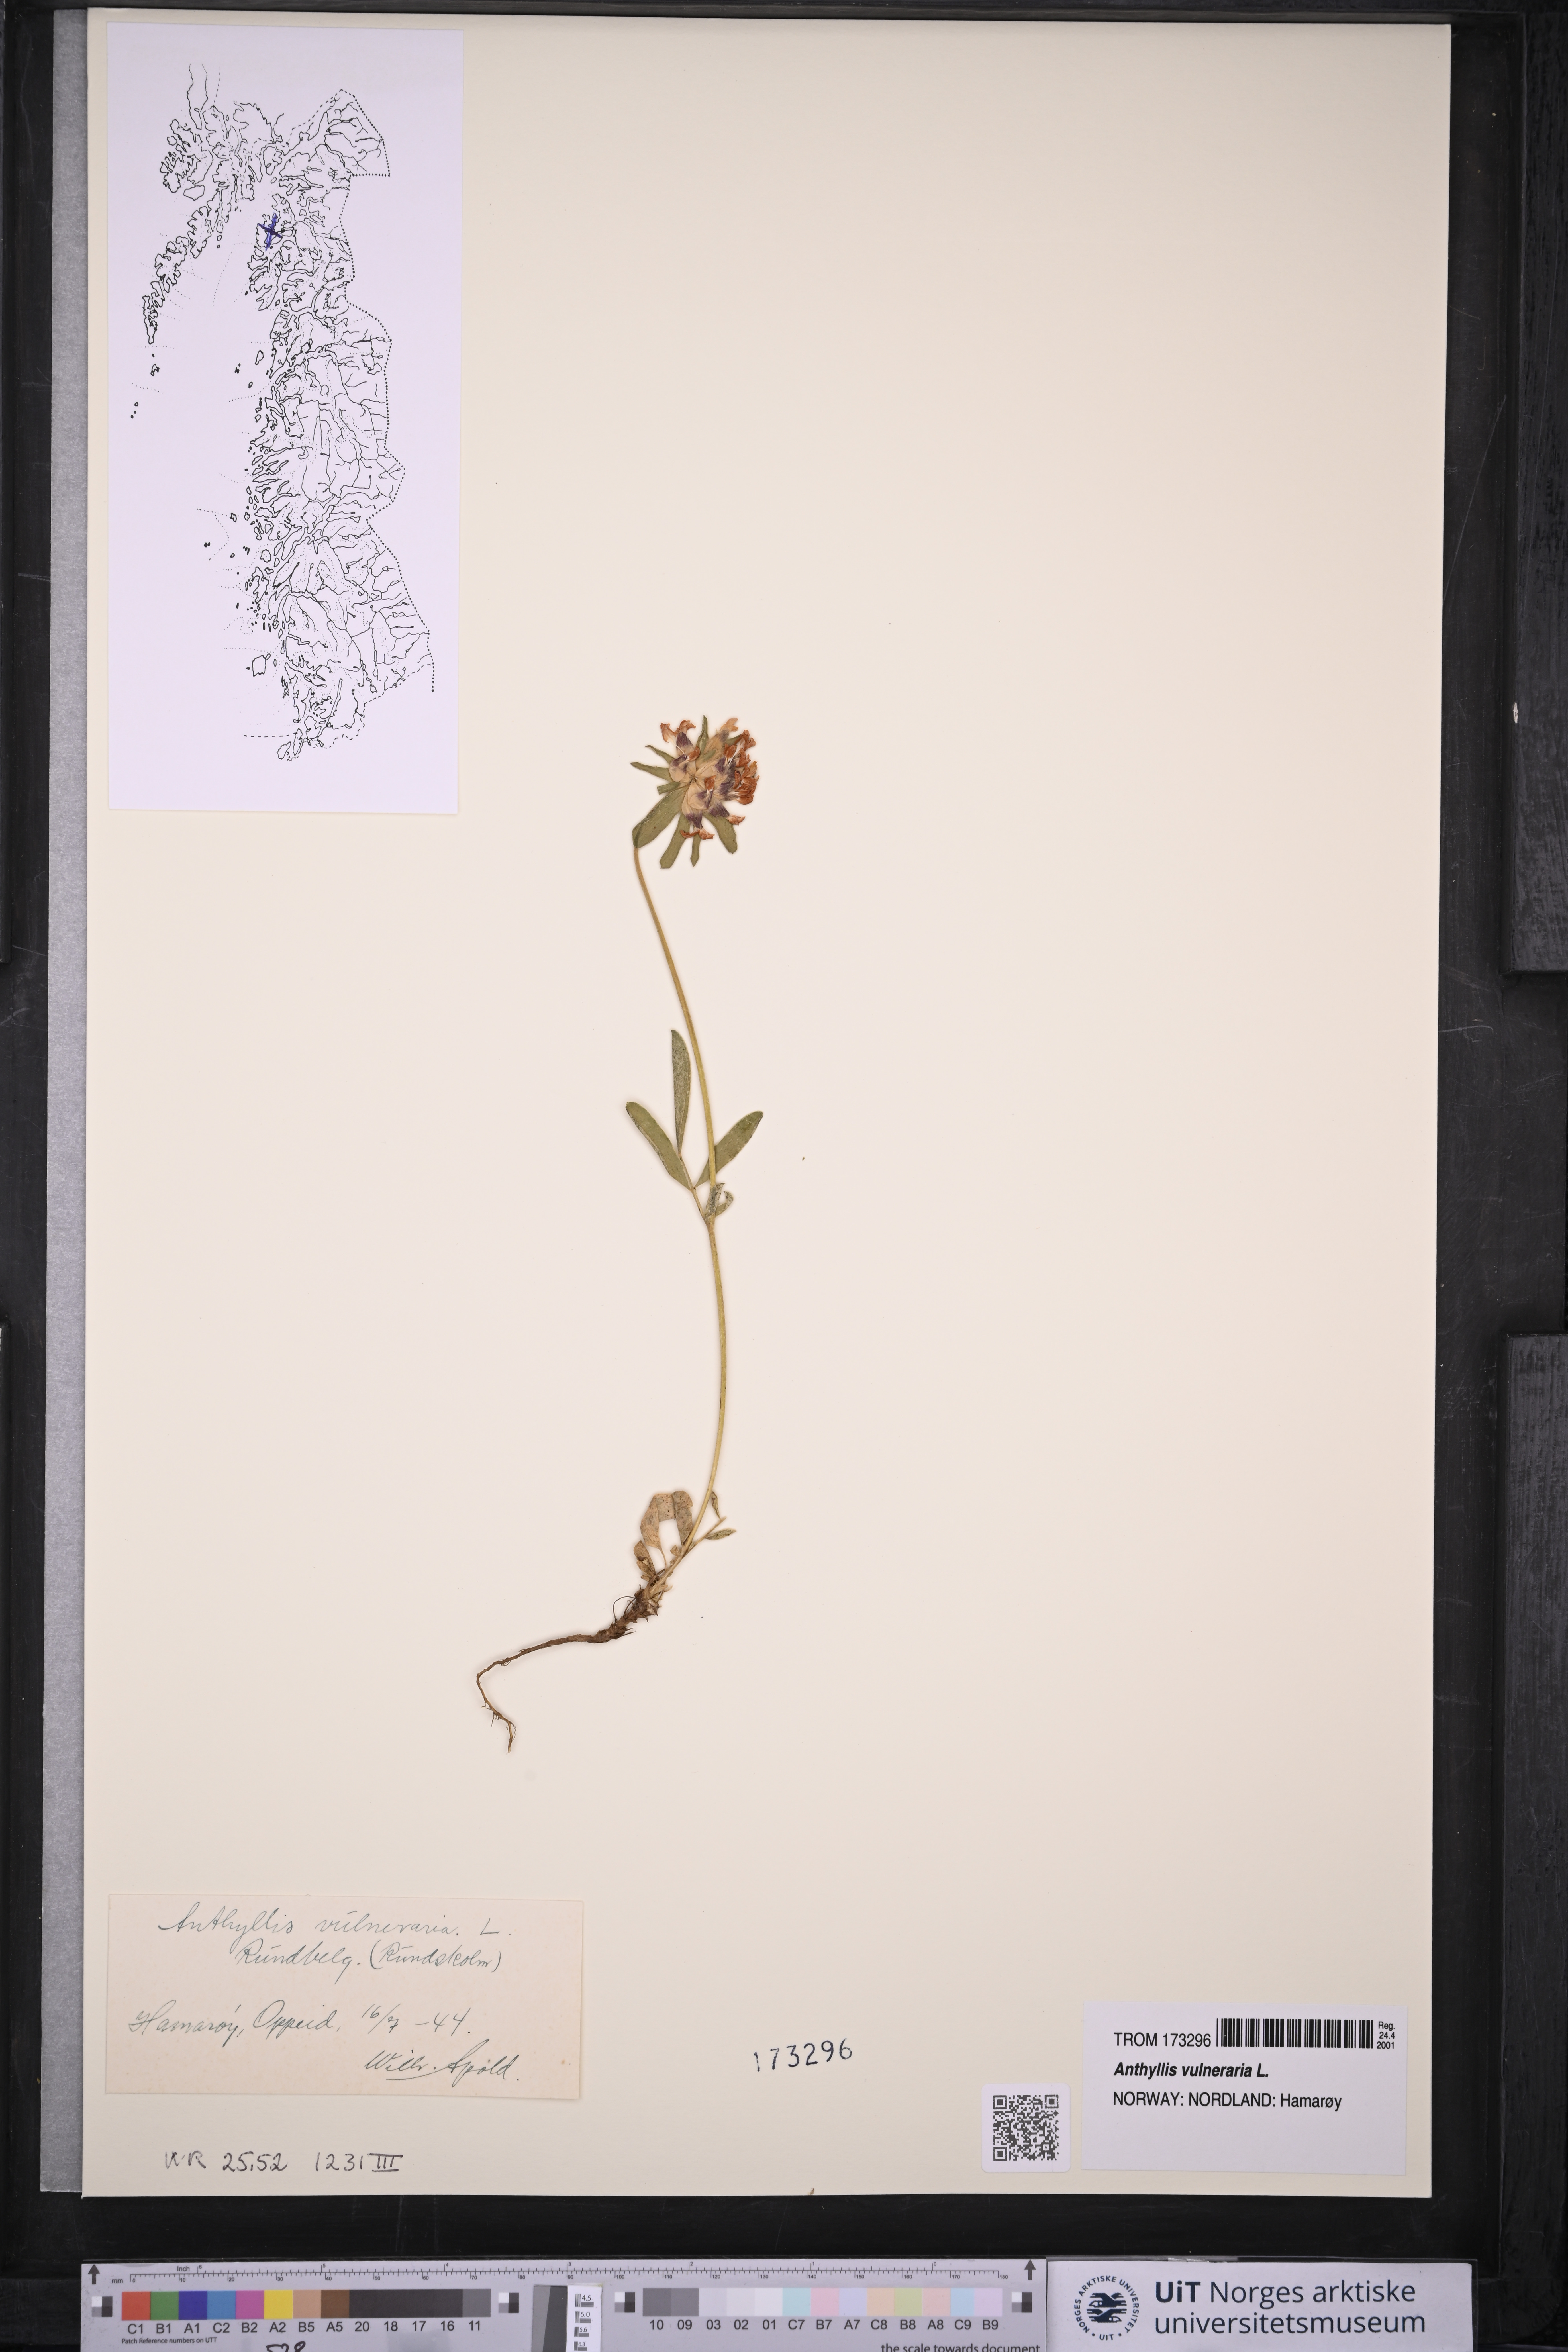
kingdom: Plantae
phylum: Tracheophyta
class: Magnoliopsida
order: Fabales
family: Fabaceae
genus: Anthyllis
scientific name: Anthyllis vulneraria
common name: Kidney vetch
